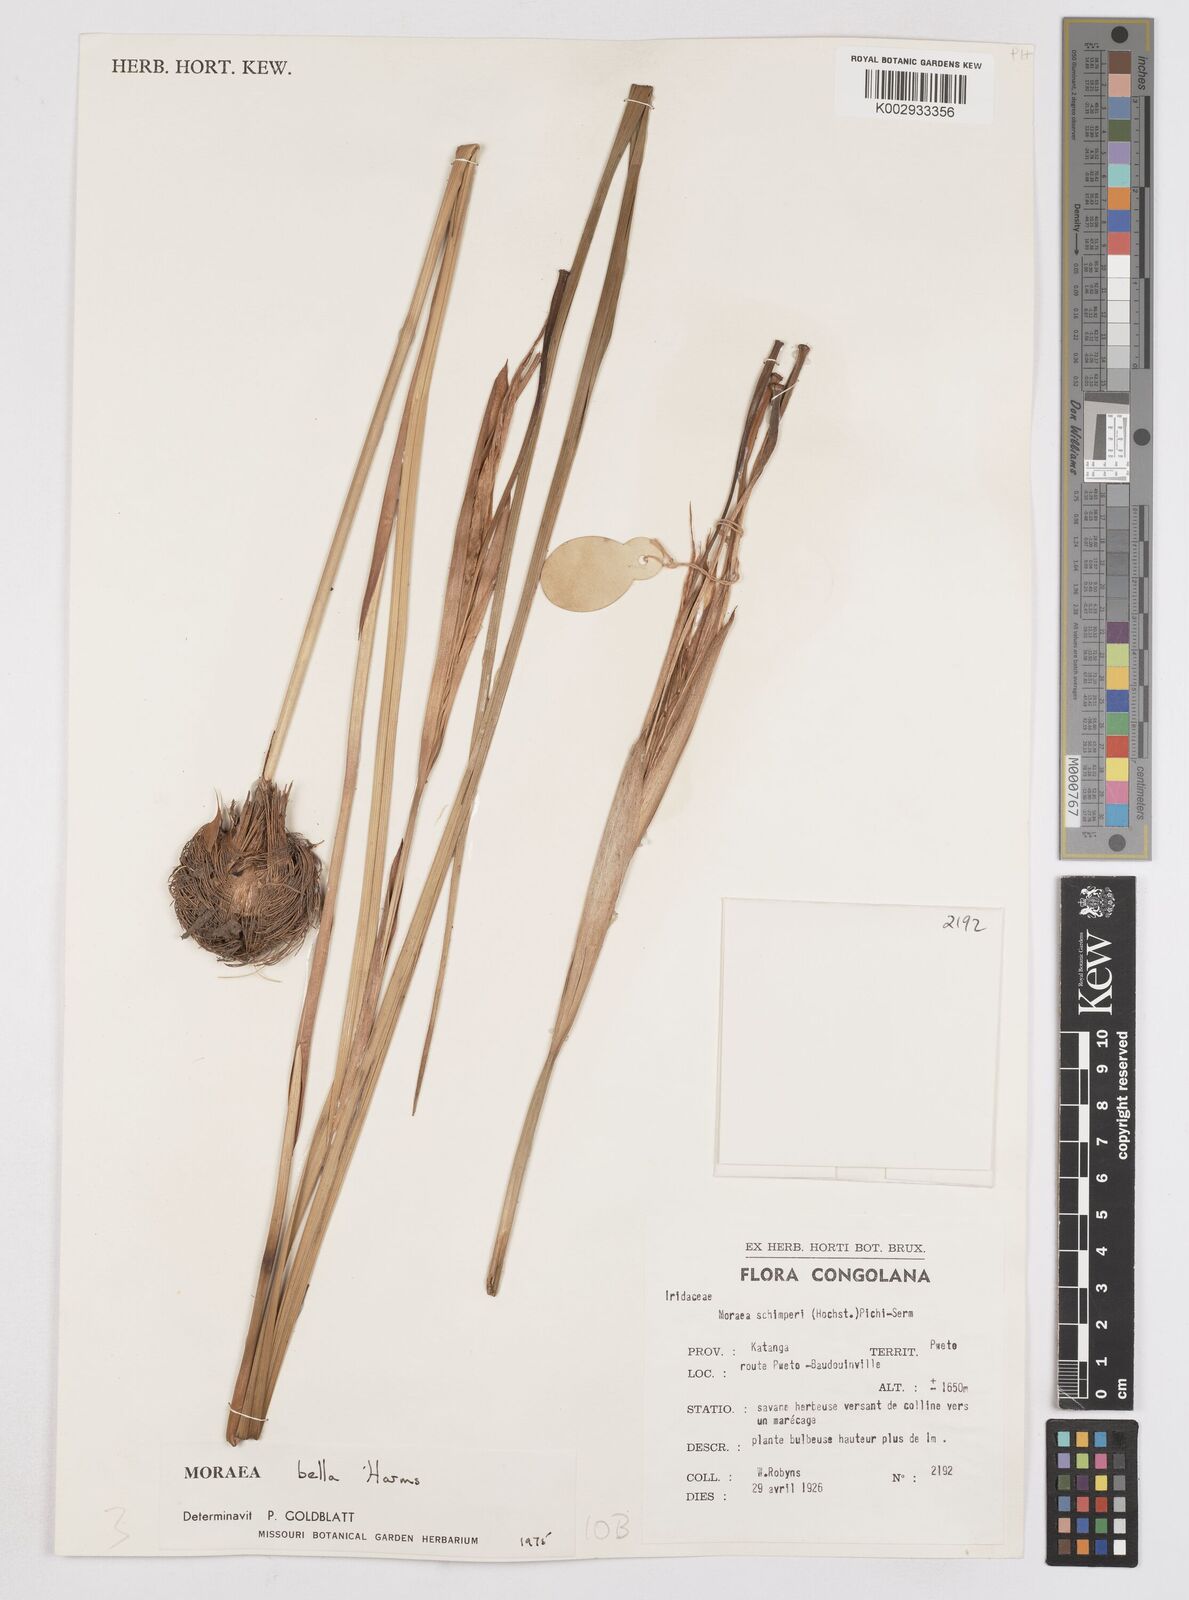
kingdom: Plantae
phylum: Tracheophyta
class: Liliopsida
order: Asparagales
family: Iridaceae
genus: Moraea
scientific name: Moraea bella
